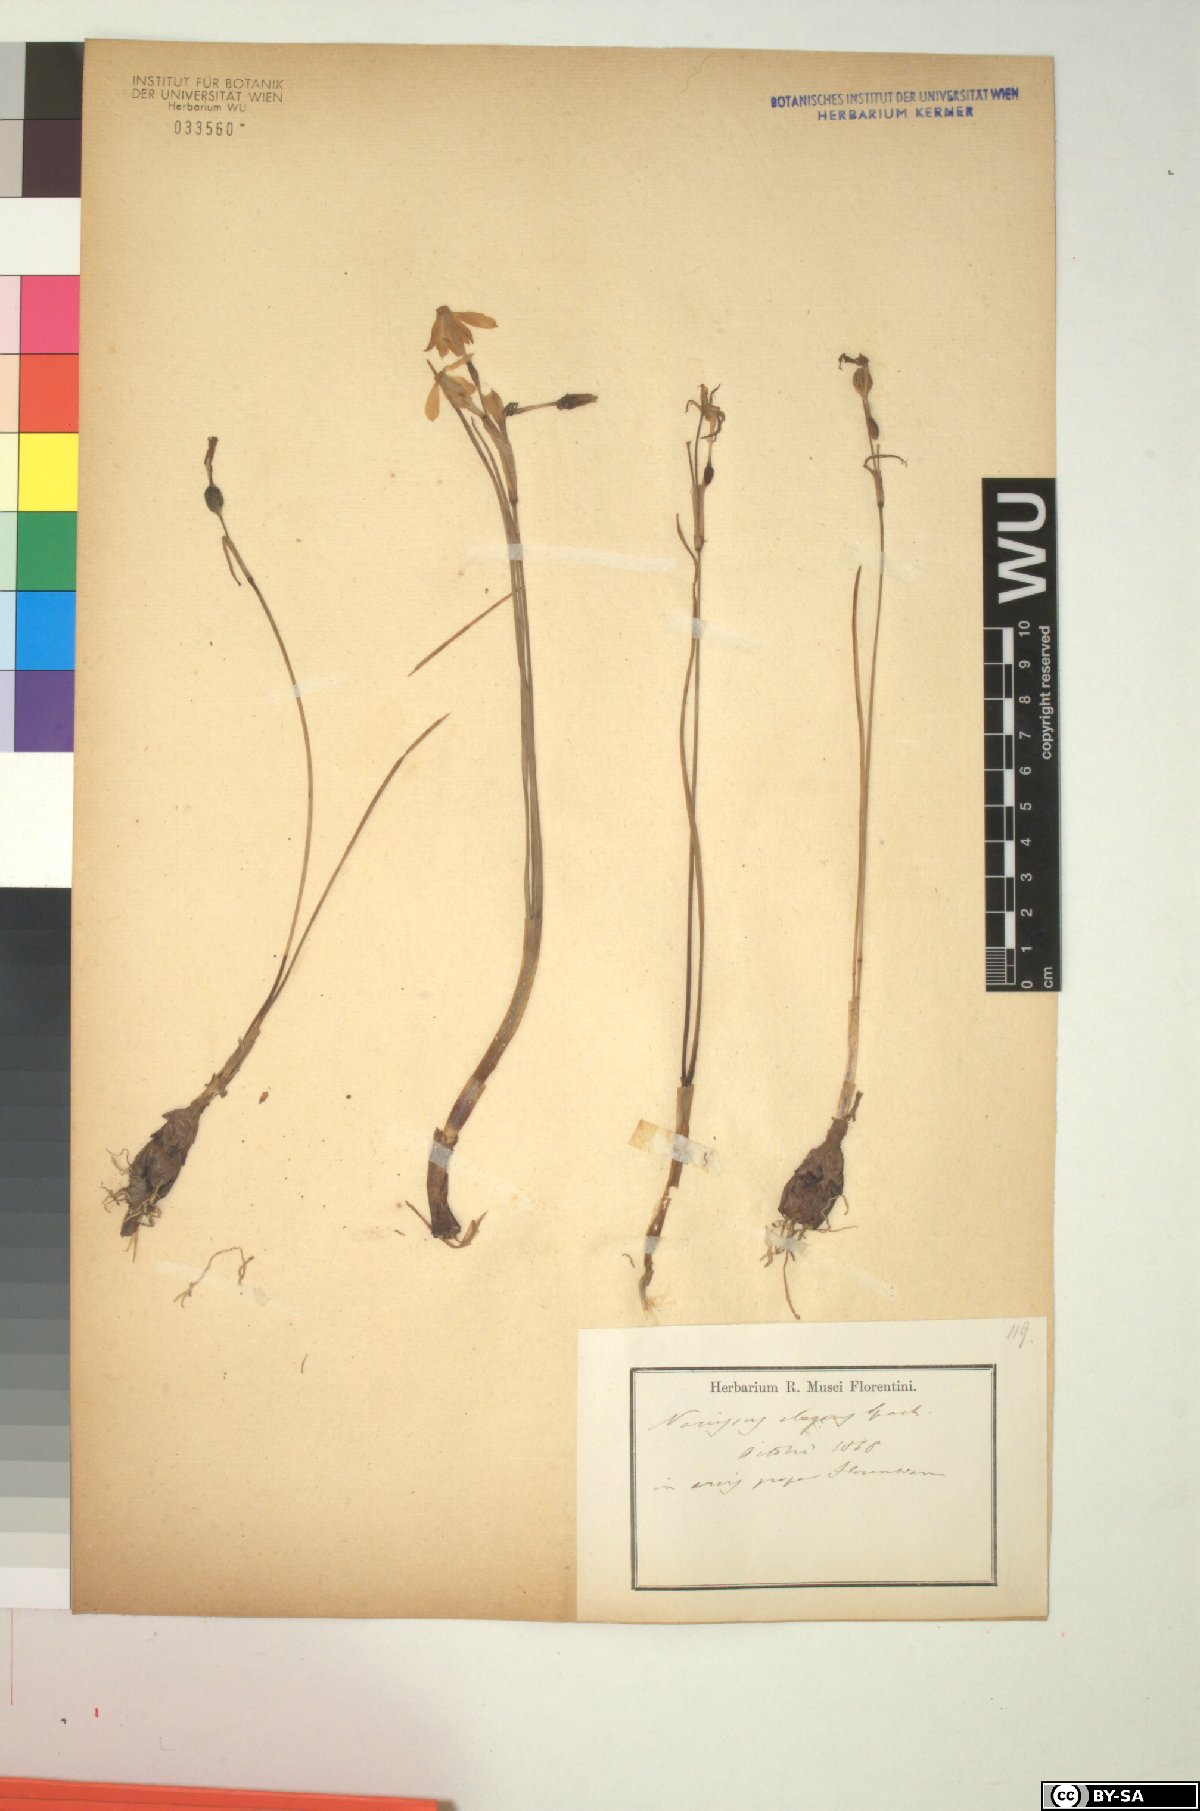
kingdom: Plantae
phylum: Tracheophyta
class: Liliopsida
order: Asparagales
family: Amaryllidaceae
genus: Narcissus
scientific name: Narcissus obsoletus
